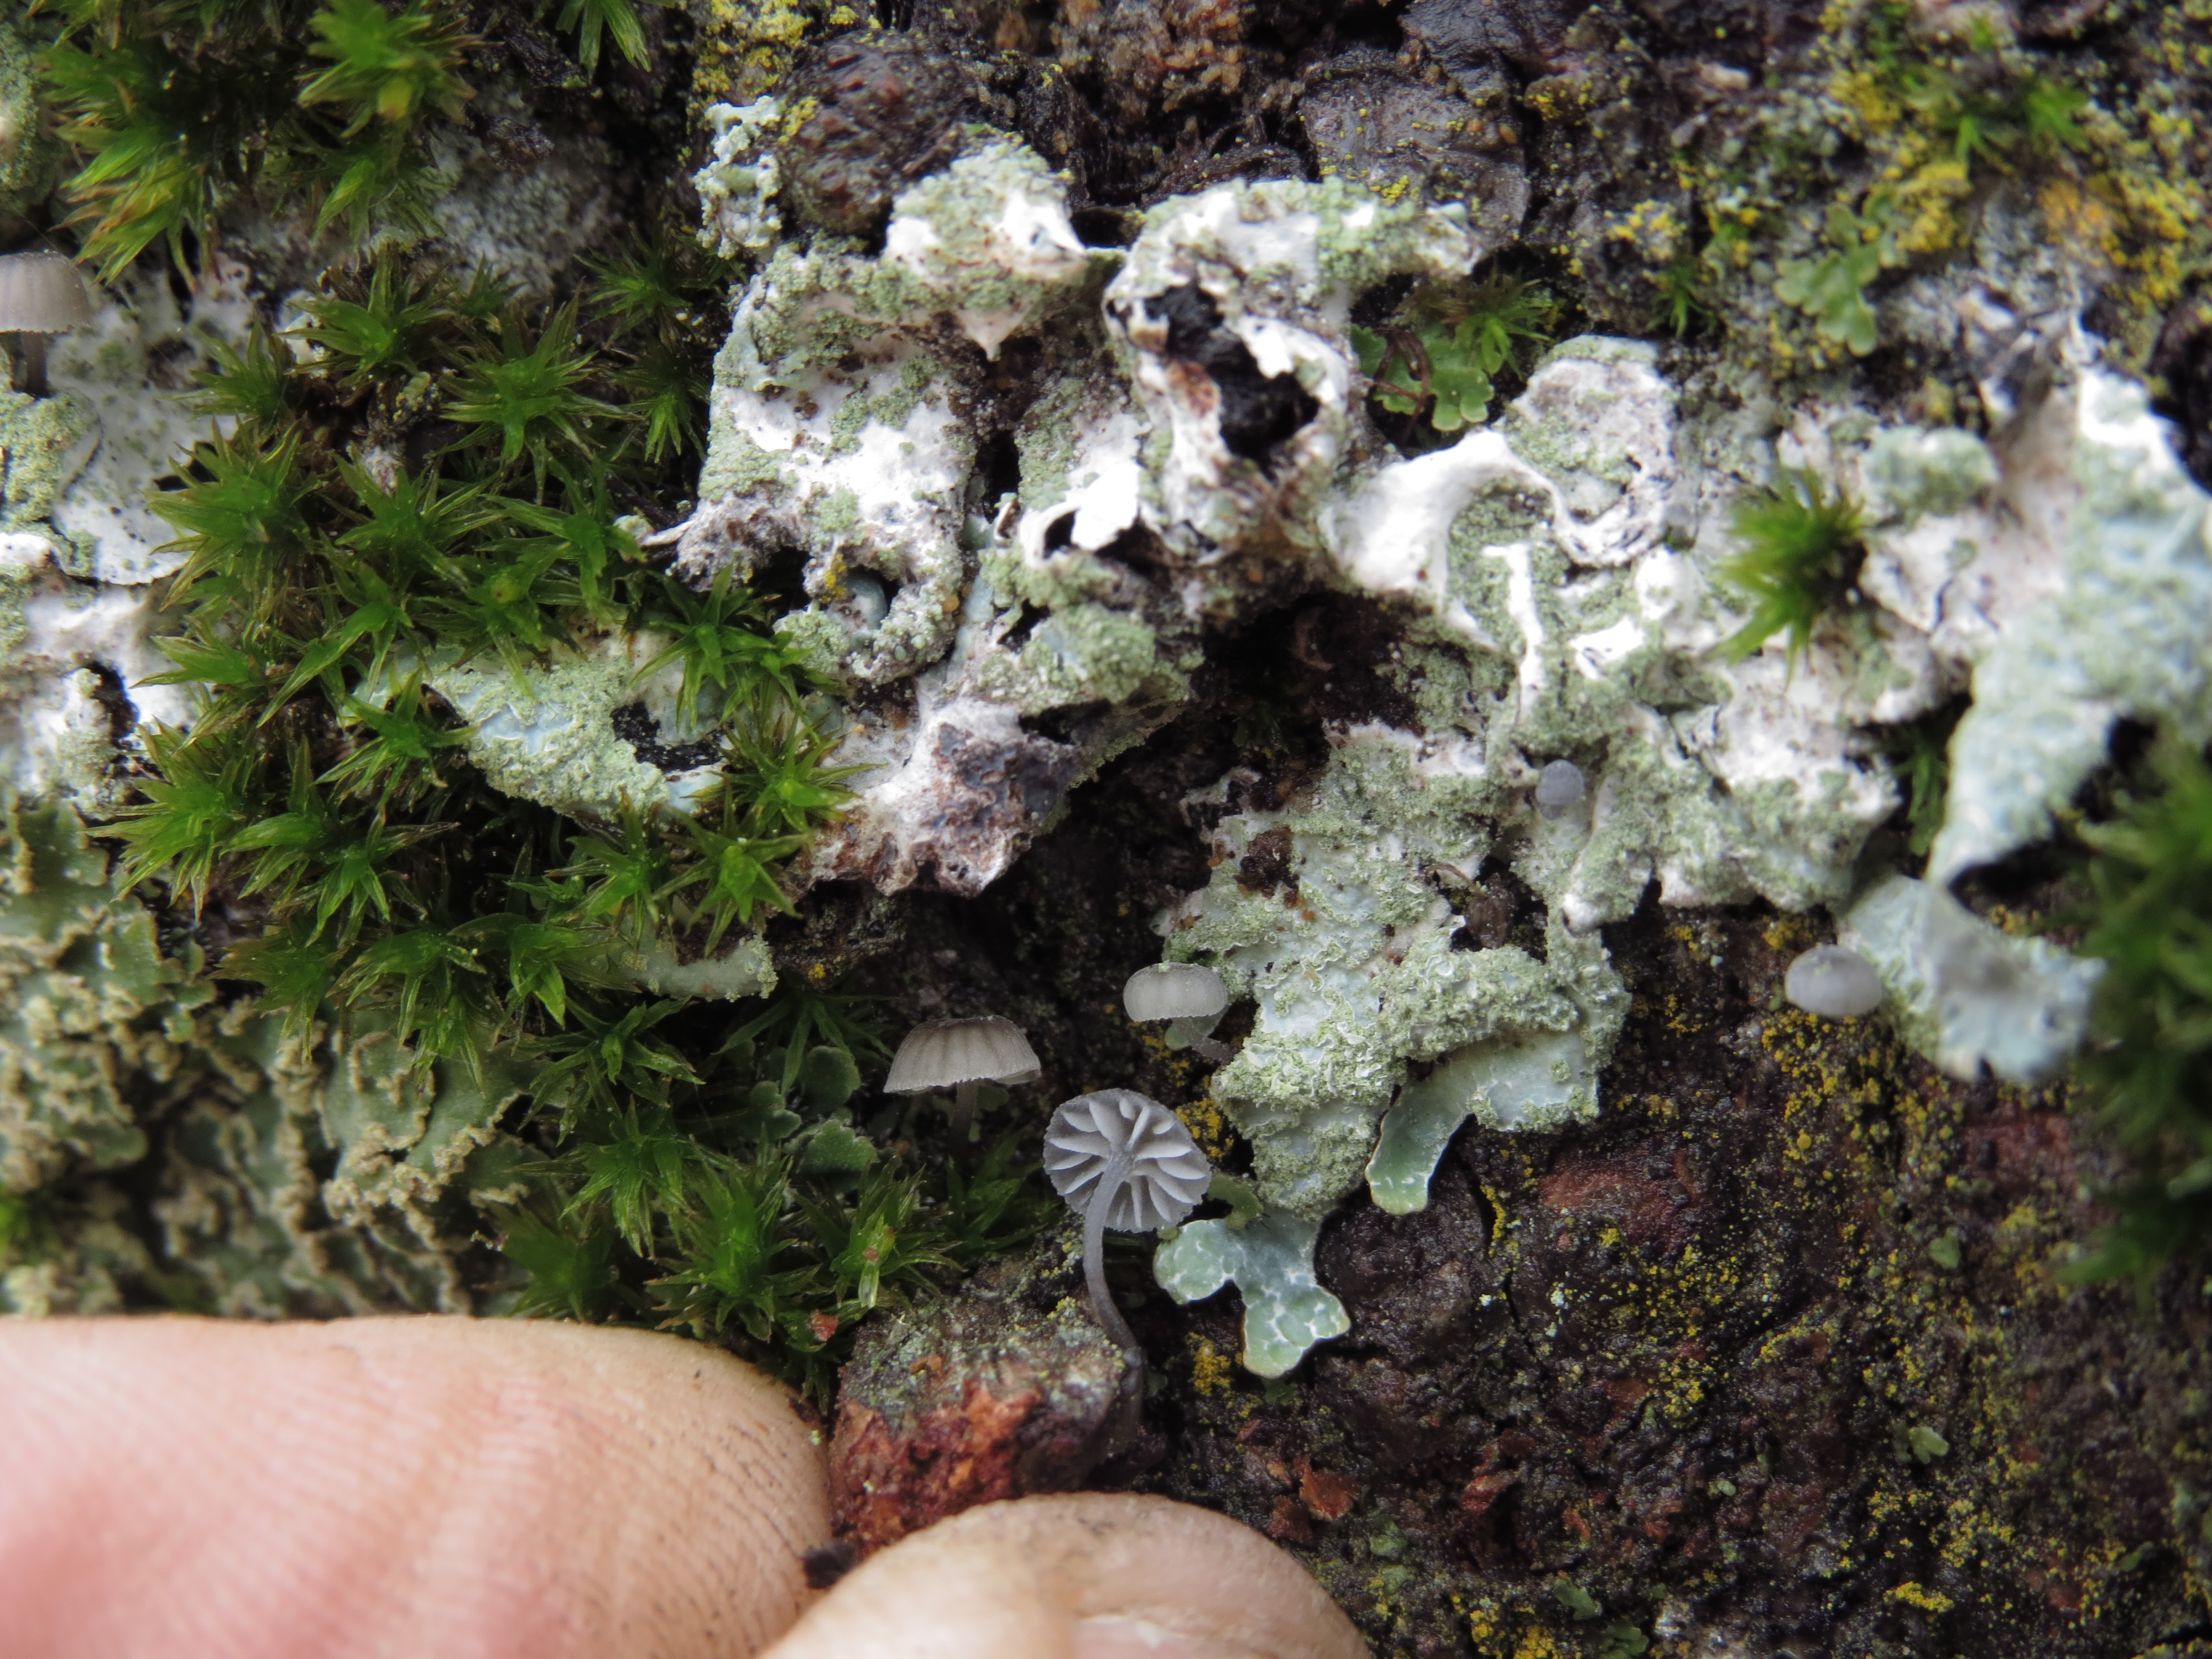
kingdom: Fungi
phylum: Basidiomycota
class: Agaricomycetes
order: Agaricales
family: Mycenaceae
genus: Mycena
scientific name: Mycena pseudocorticola
